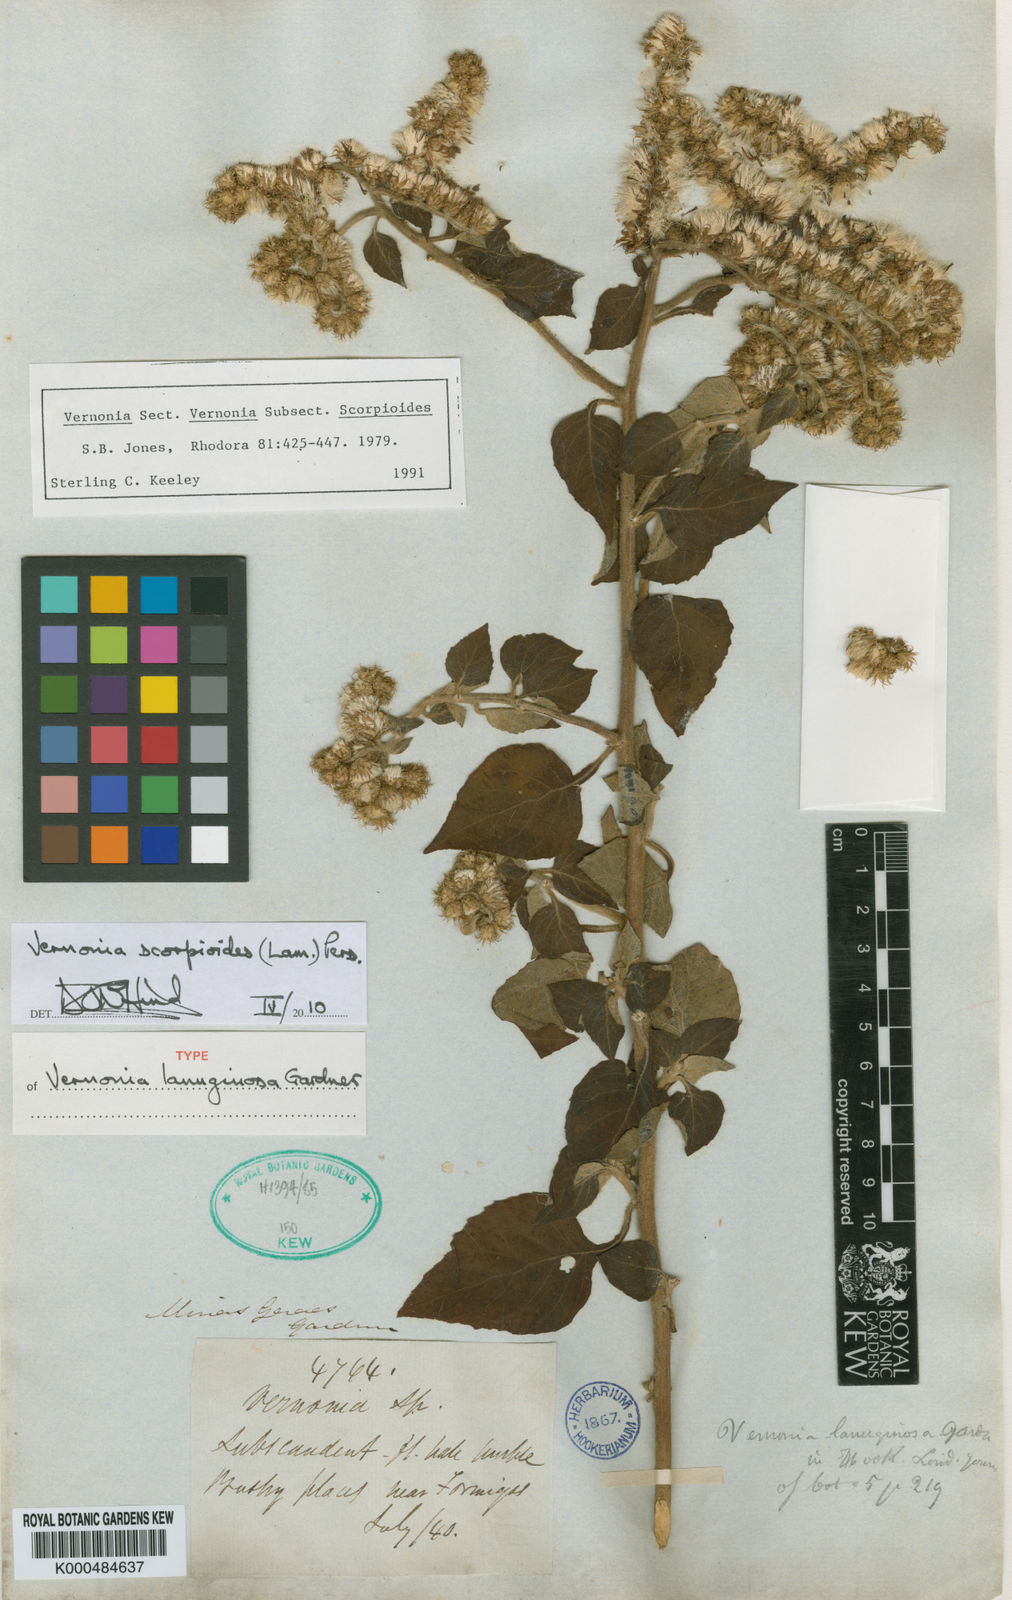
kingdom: Plantae
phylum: Tracheophyta
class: Magnoliopsida
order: Asterales
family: Asteraceae
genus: Cyrtocymura
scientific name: Cyrtocymura scorpioides
